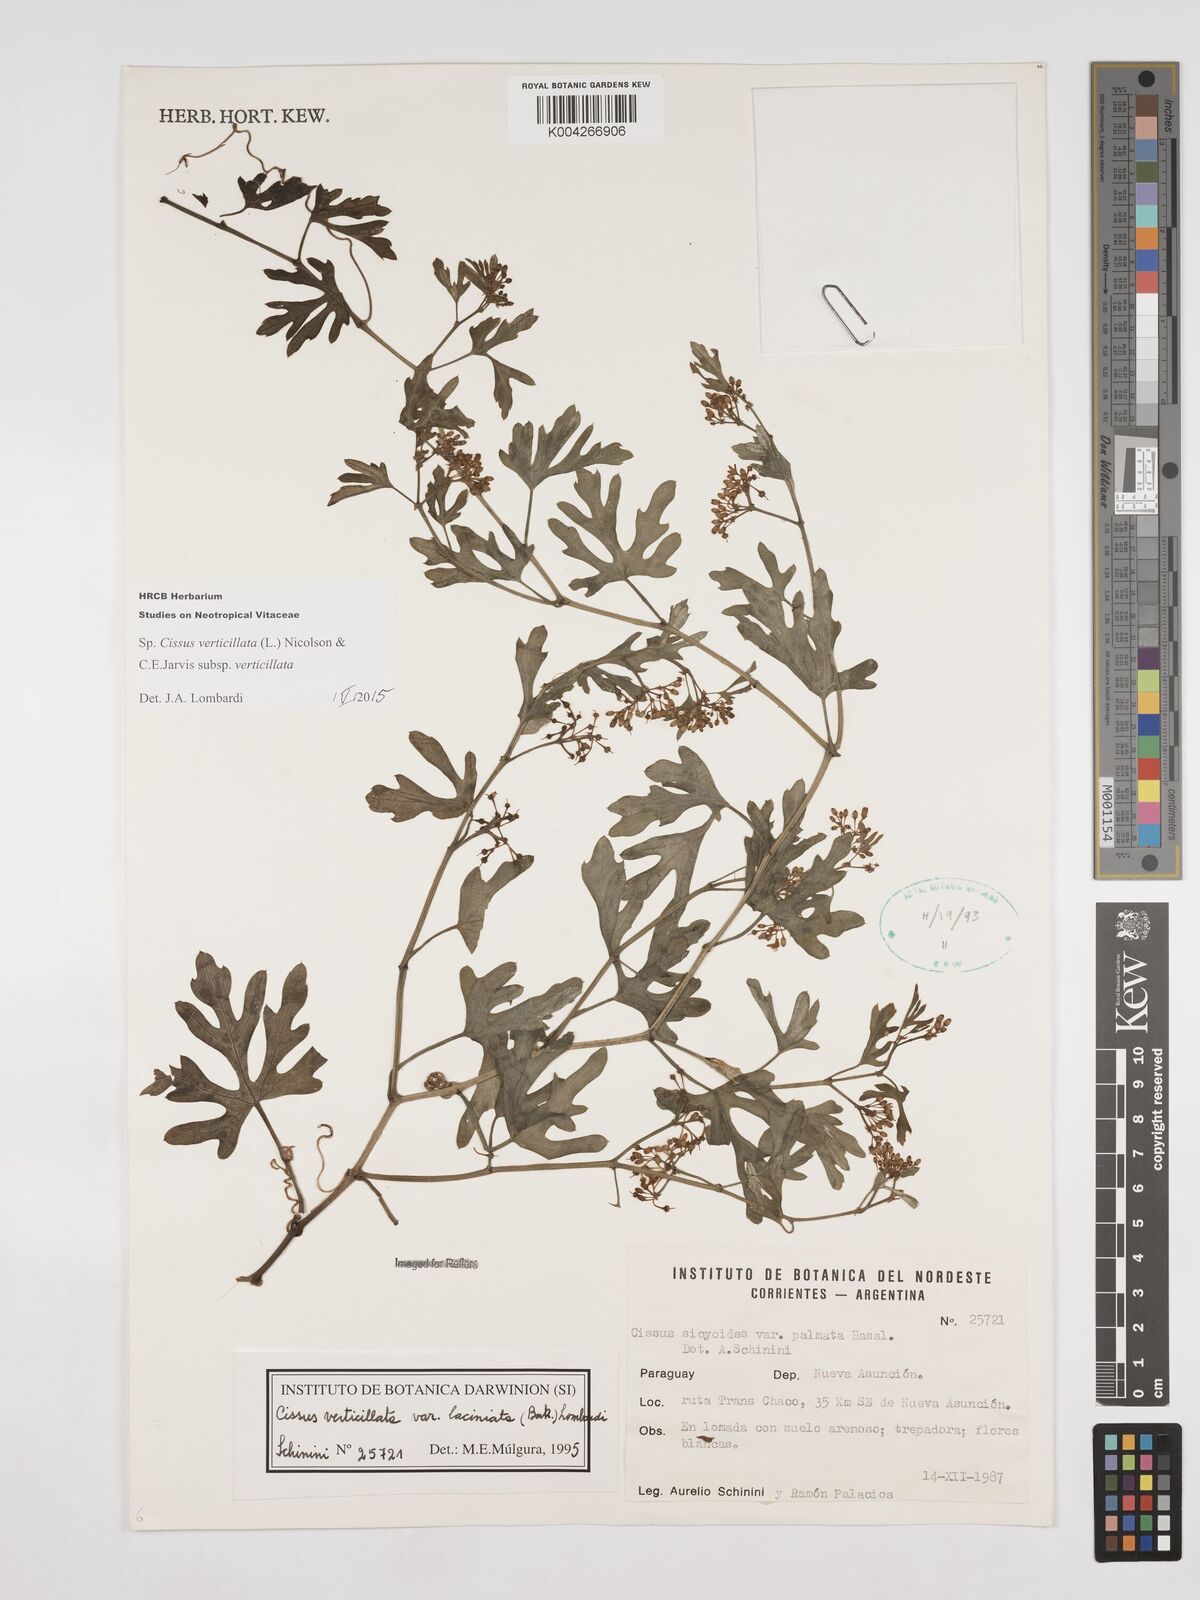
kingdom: Plantae
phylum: Tracheophyta
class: Magnoliopsida
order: Vitales
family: Vitaceae
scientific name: Vitaceae
